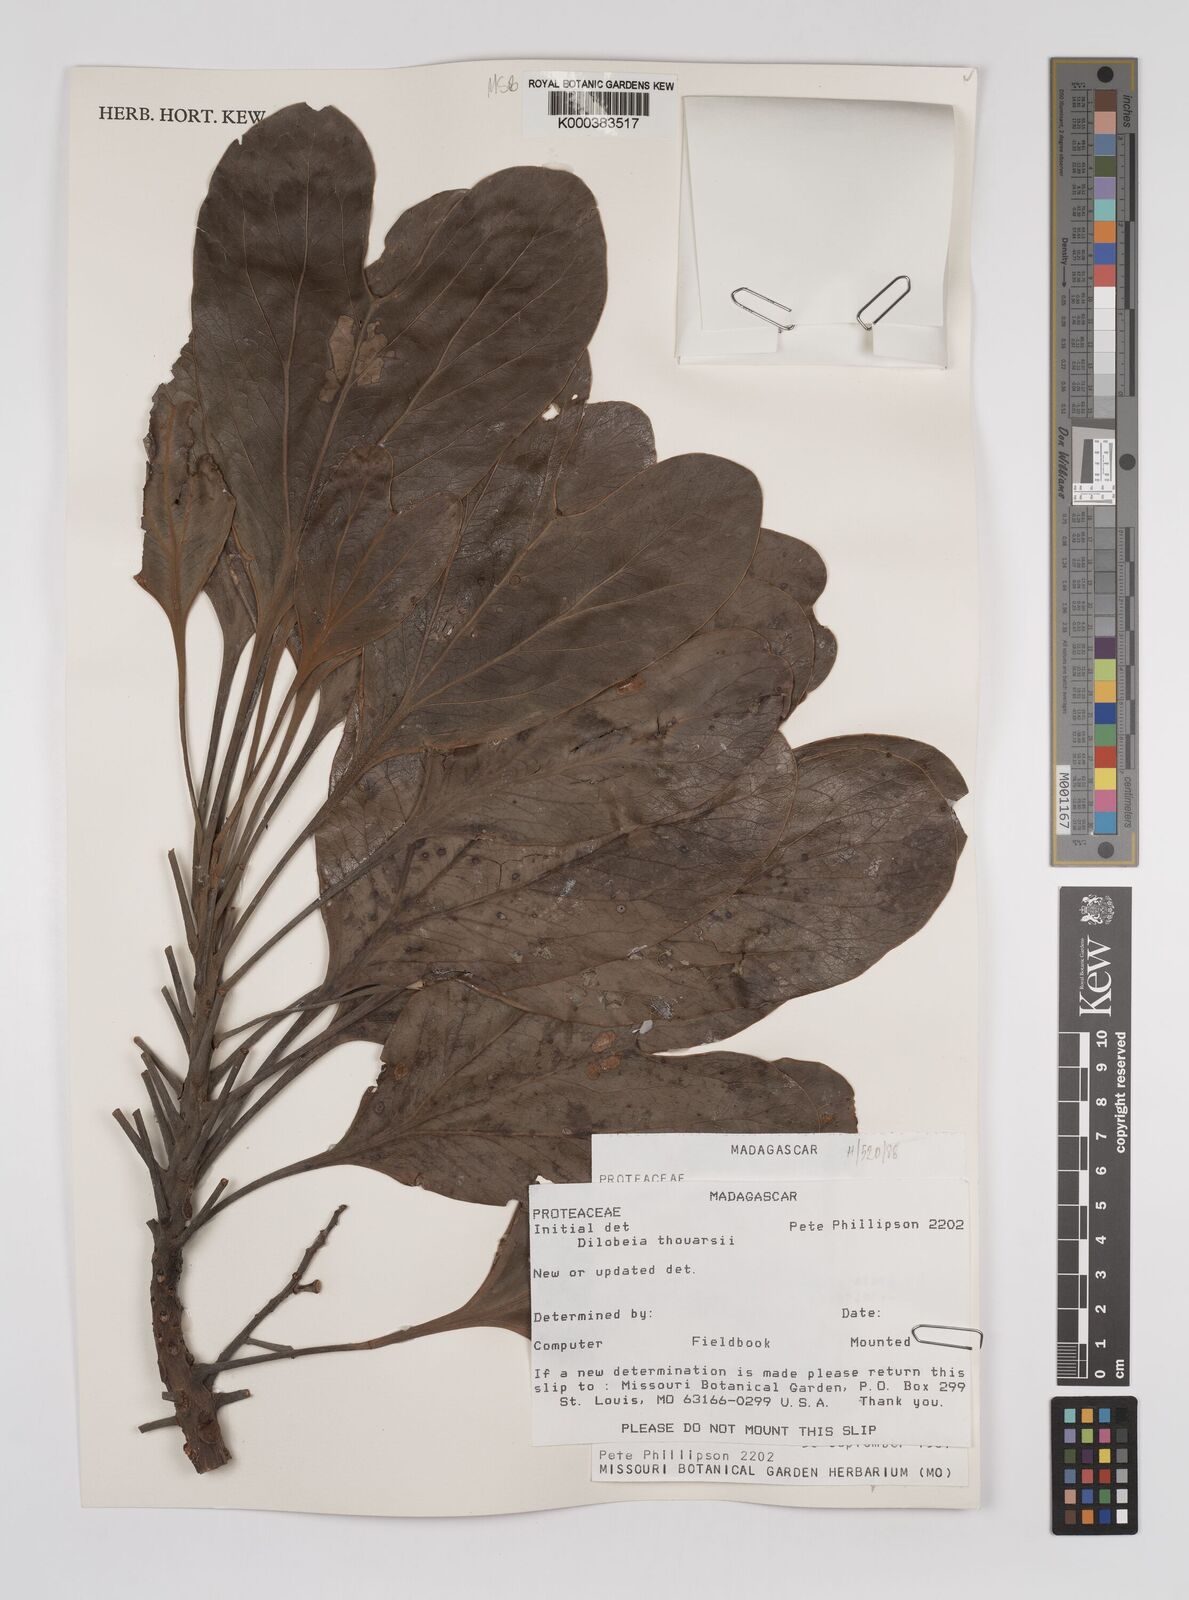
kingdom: Plantae
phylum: Tracheophyta
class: Magnoliopsida
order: Proteales
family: Proteaceae
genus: Dilobeia
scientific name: Dilobeia thouarsii
